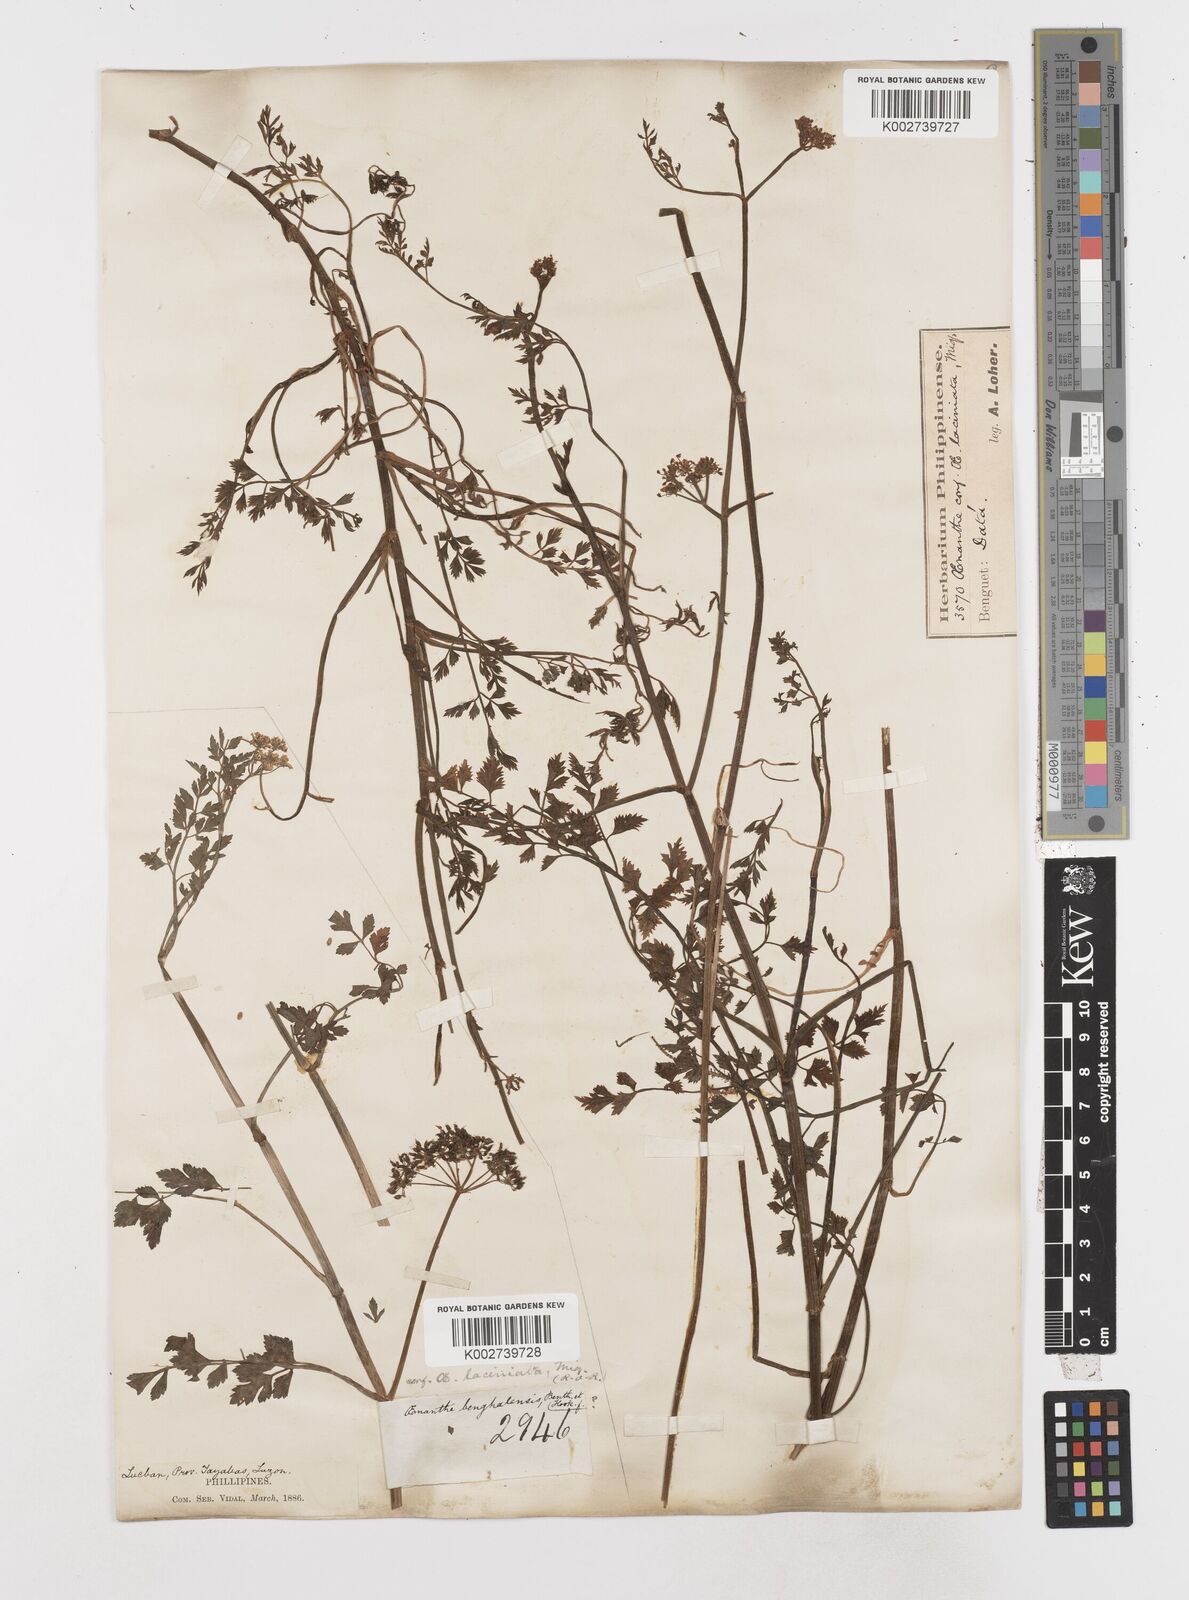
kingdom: Plantae
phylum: Tracheophyta
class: Magnoliopsida
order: Apiales
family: Apiaceae
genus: Oenanthe
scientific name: Oenanthe javanica
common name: Java water-dropwort
